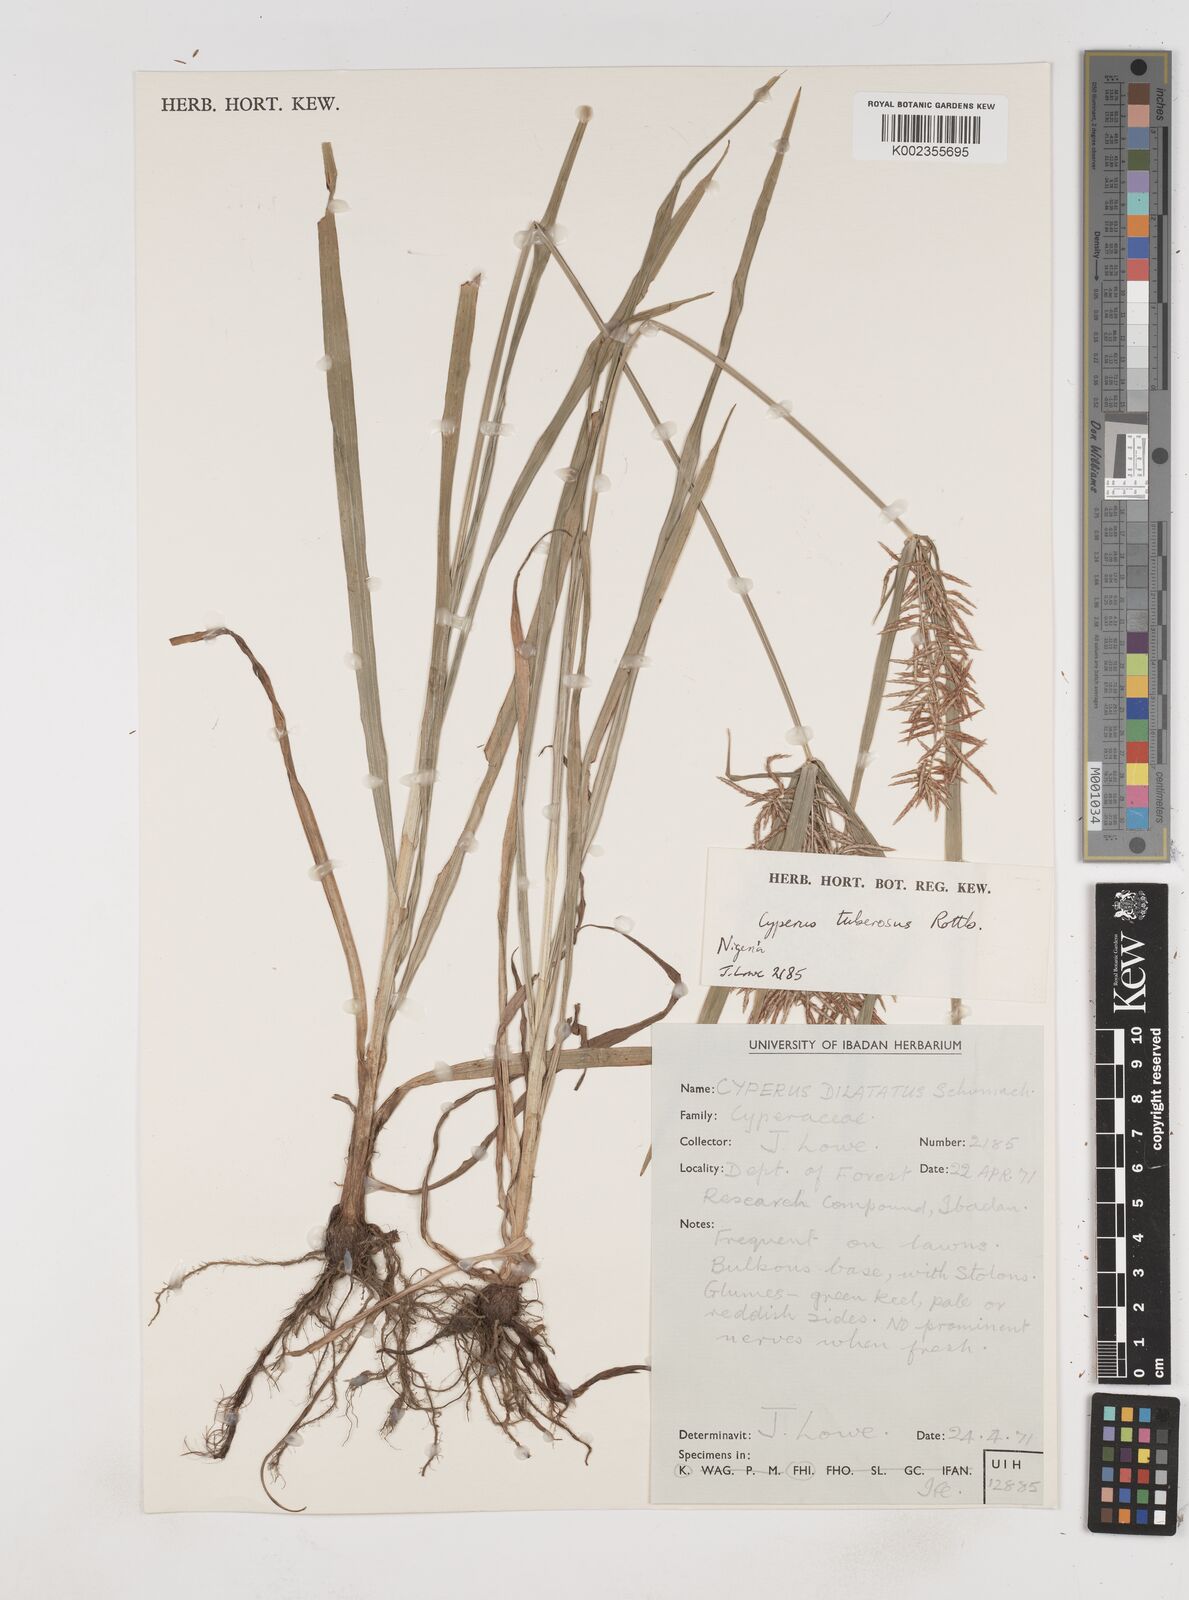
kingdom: Plantae
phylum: Tracheophyta
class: Liliopsida
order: Poales
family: Cyperaceae
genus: Cyperus
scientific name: Cyperus tuberosus
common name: Nut grass
